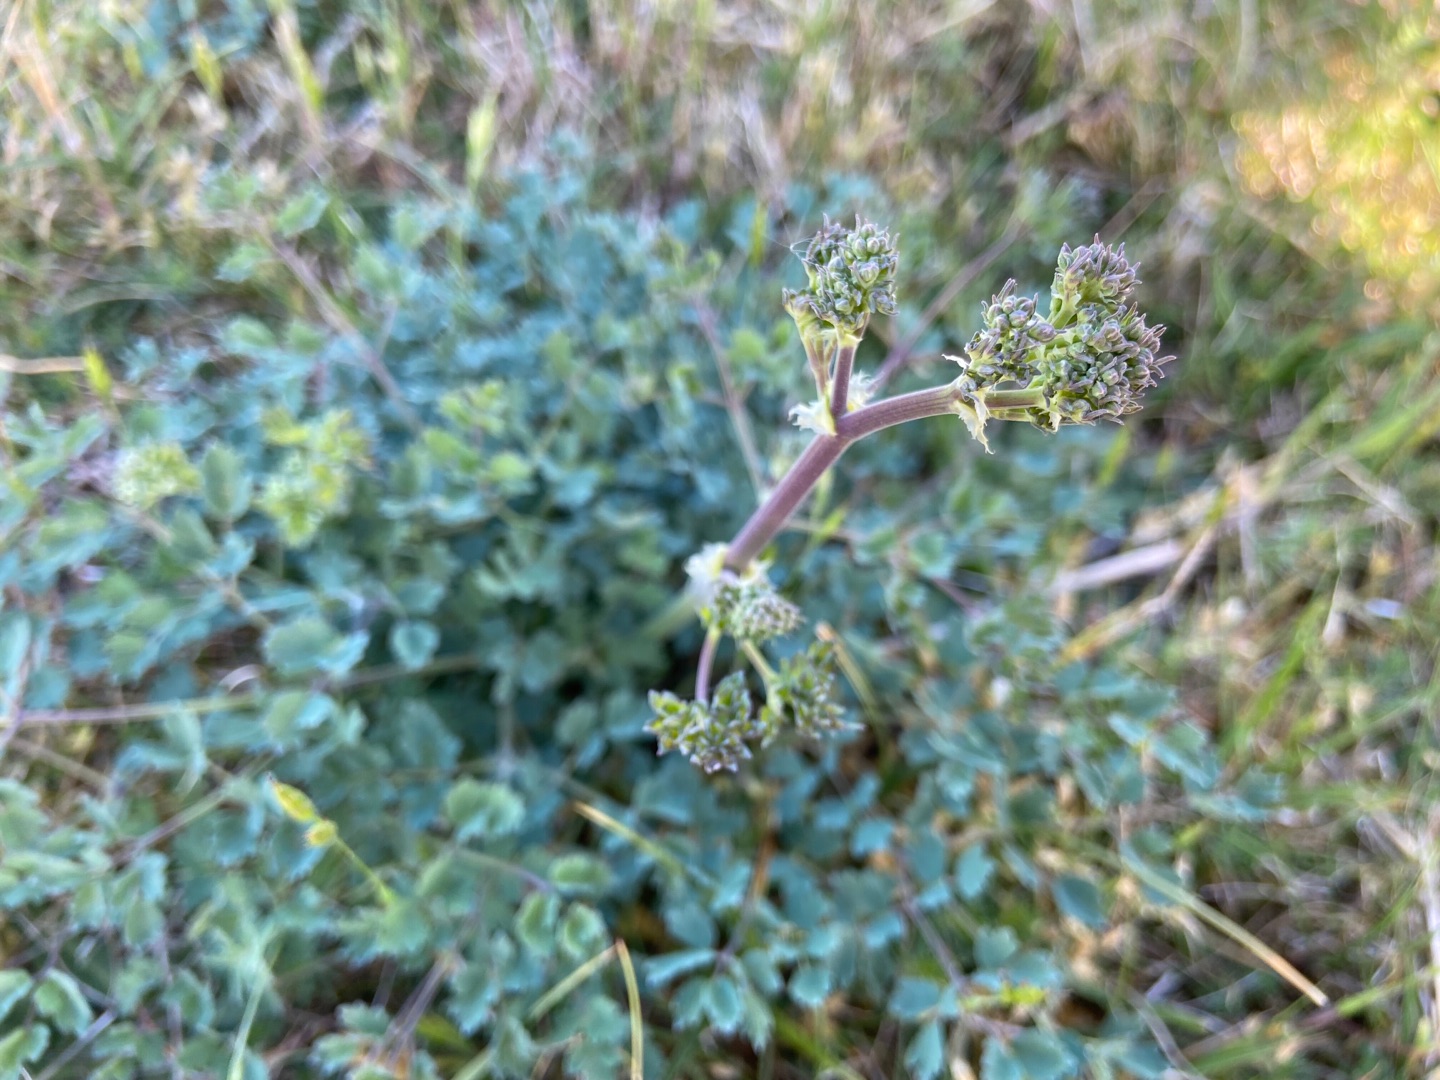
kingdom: Plantae
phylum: Tracheophyta
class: Magnoliopsida
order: Ranunculales
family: Ranunculaceae
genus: Thalictrum
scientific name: Thalictrum minus
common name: Sand-frøstjerne
